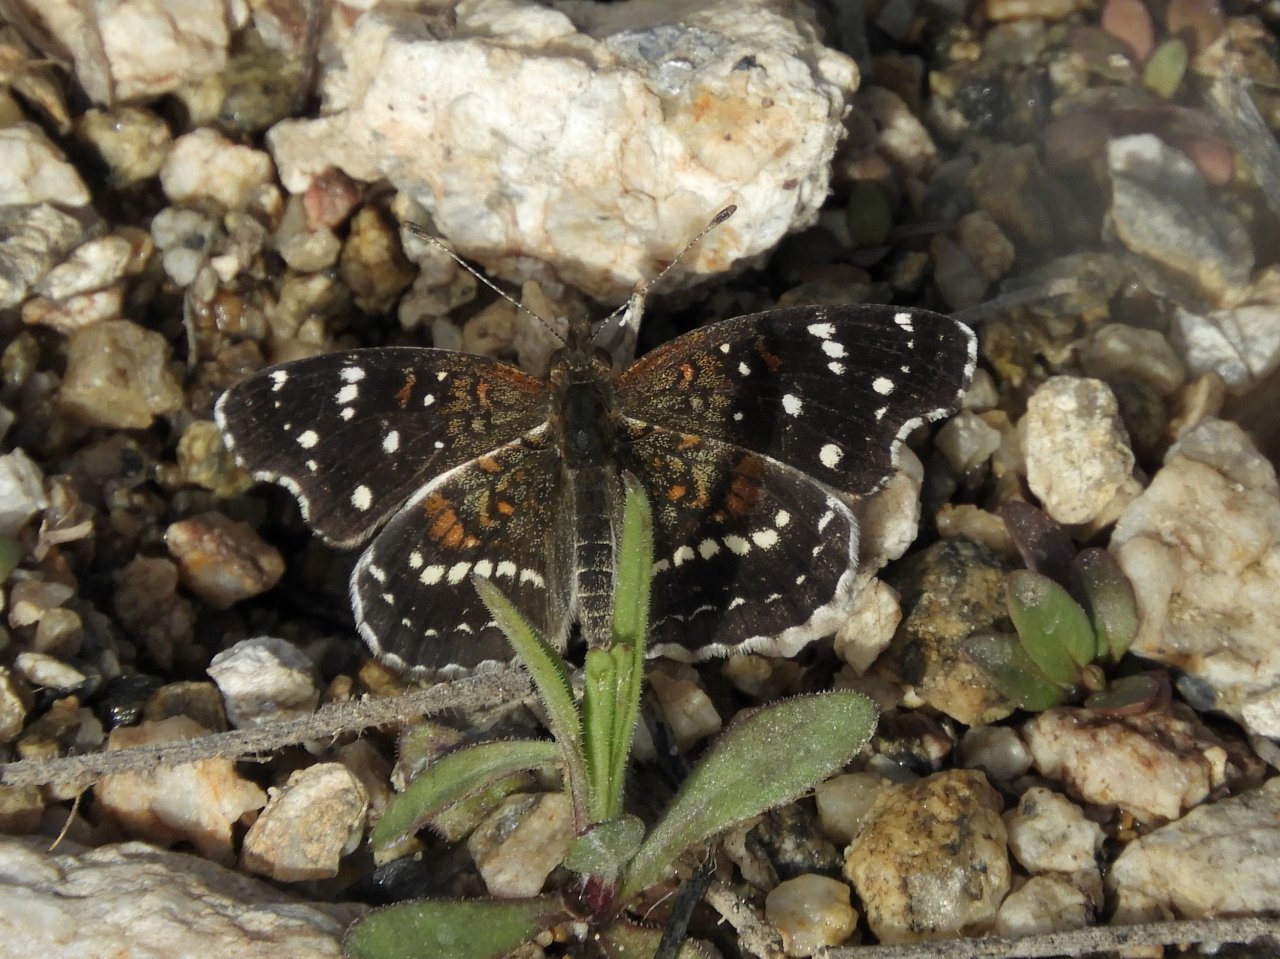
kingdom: Animalia
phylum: Arthropoda
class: Insecta
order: Lepidoptera
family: Nymphalidae
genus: Anthanassa
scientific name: Anthanassa texana
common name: Texan Crescent
